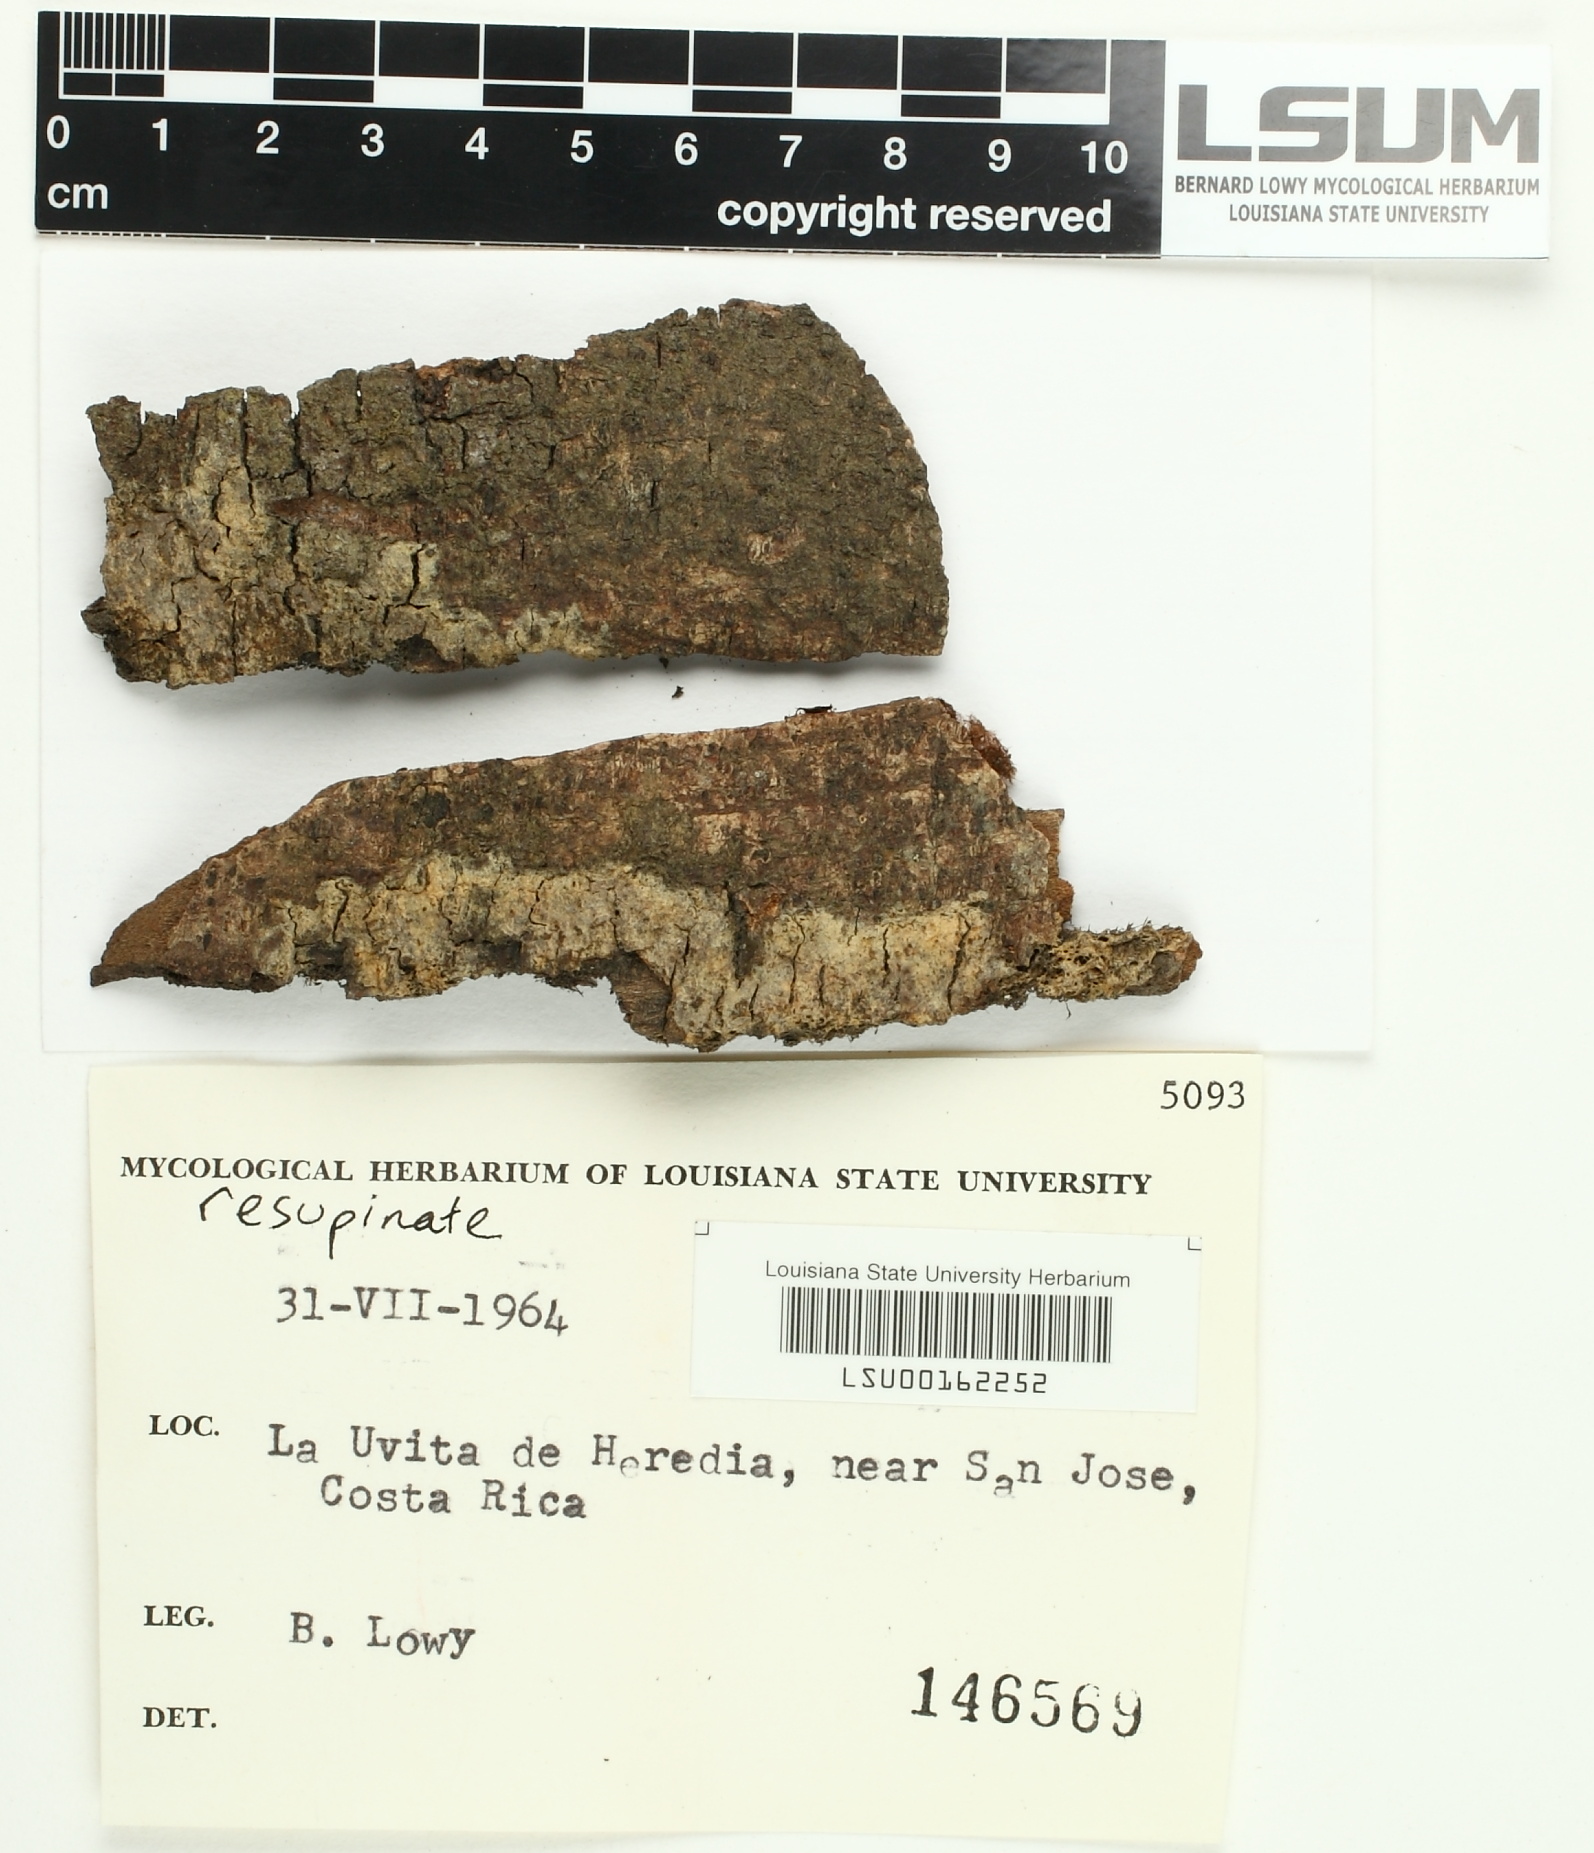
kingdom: Fungi
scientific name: Fungi
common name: Fungi
